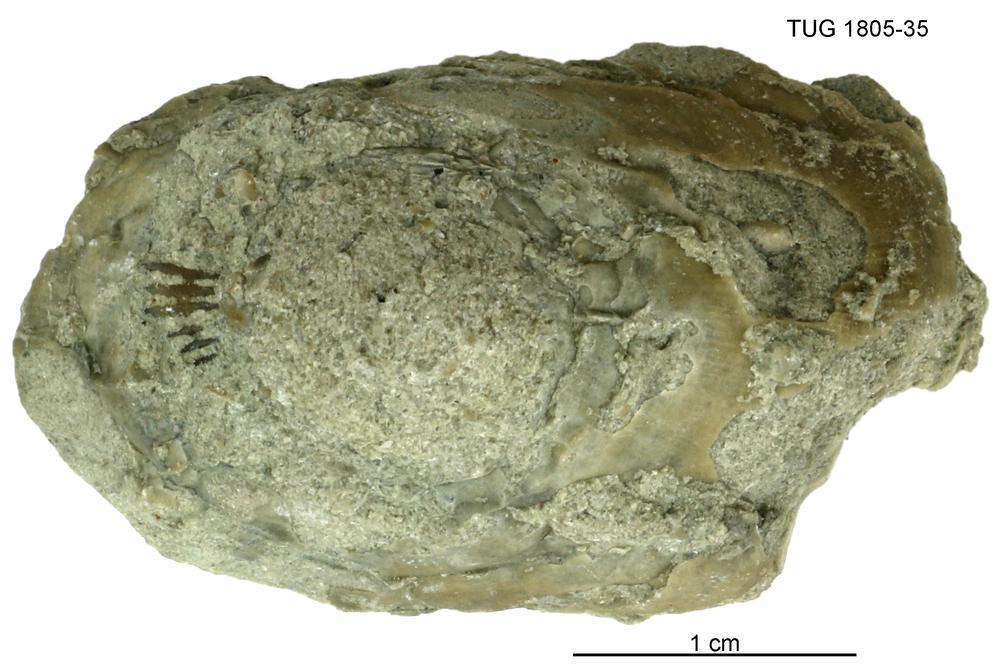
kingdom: Animalia
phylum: Mollusca
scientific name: Mollusca
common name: Mollusca
